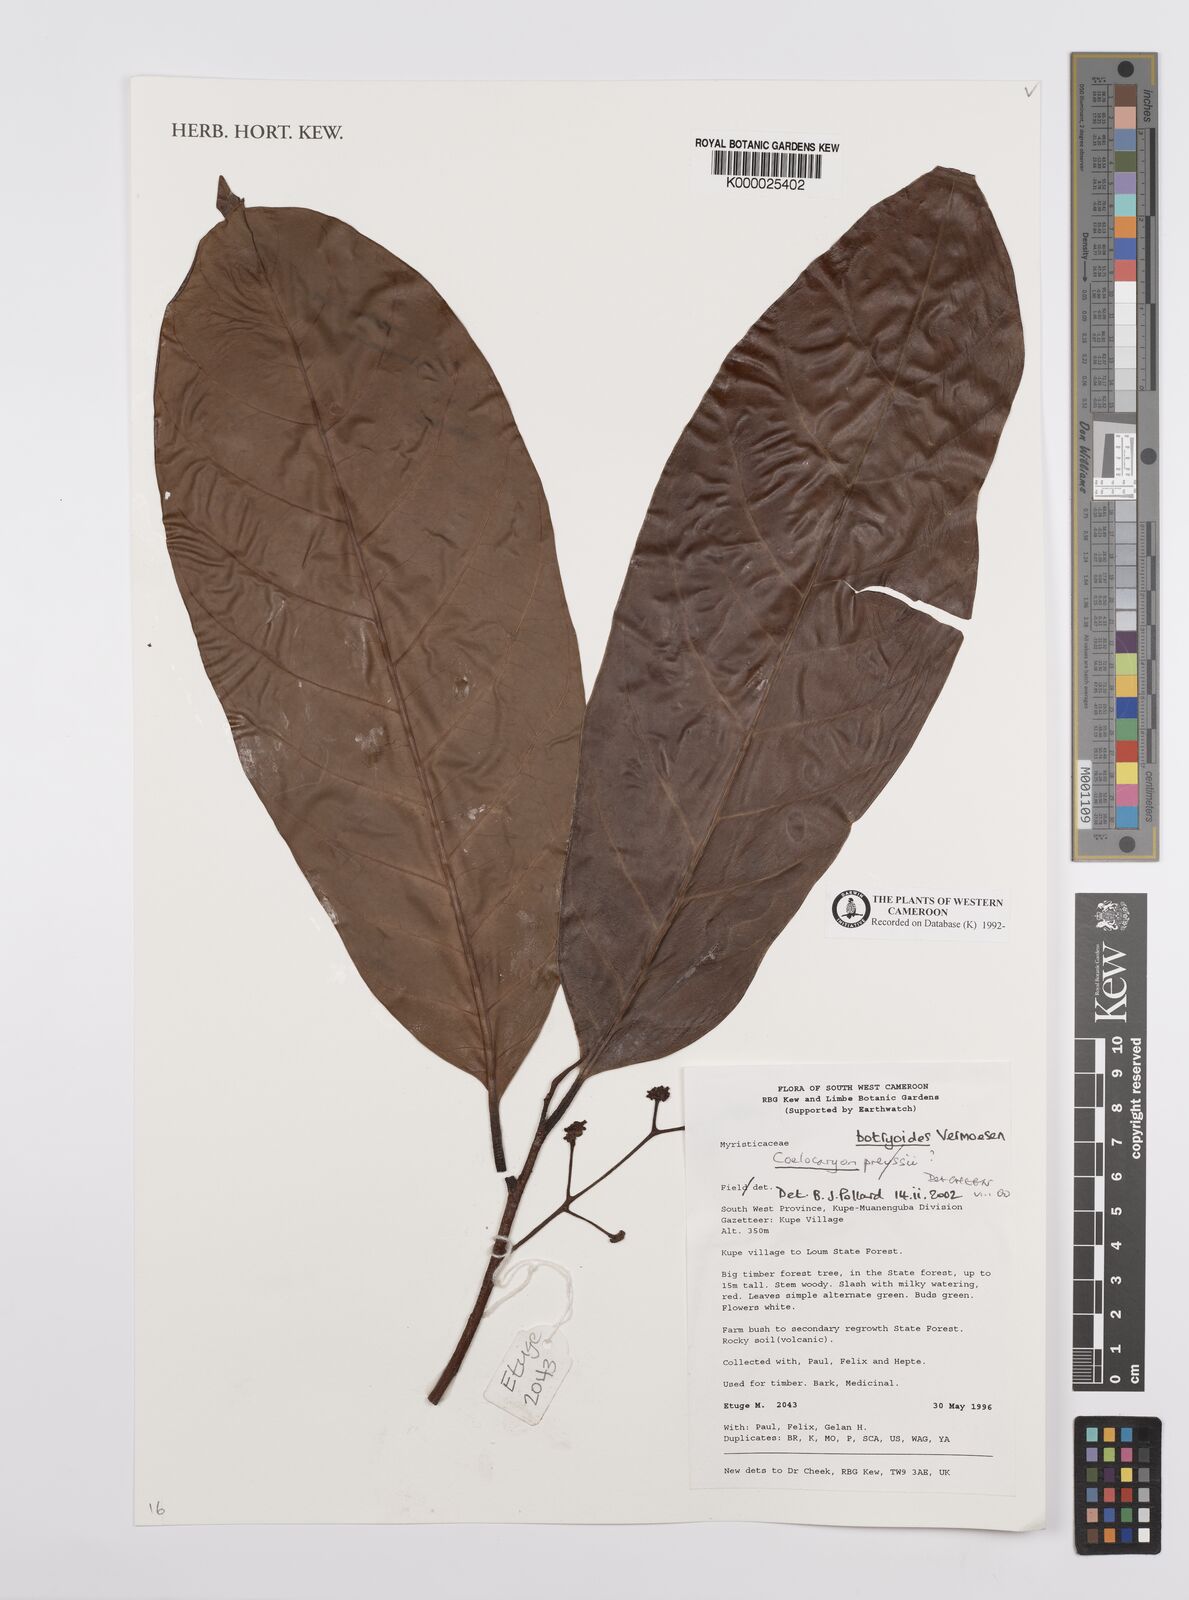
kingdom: Plantae
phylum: Tracheophyta
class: Magnoliopsida
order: Magnoliales
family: Myristicaceae
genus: Coelocaryon
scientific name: Coelocaryon botryoides
